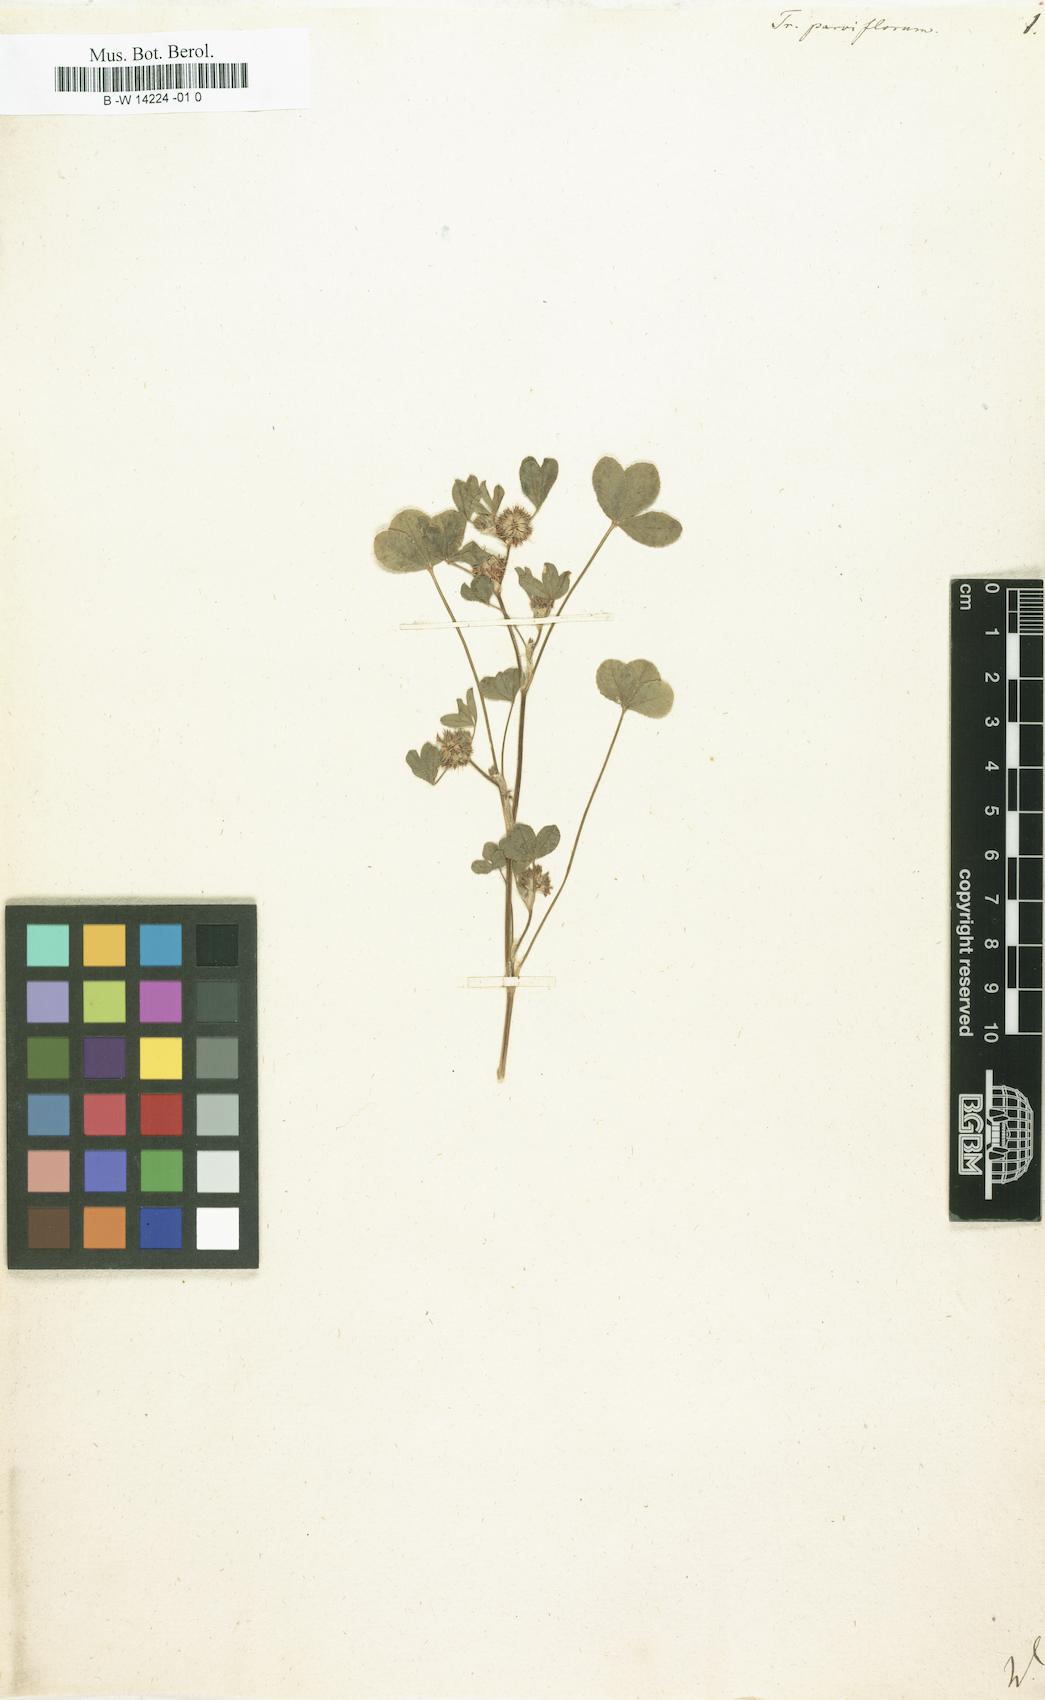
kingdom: Plantae
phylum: Tracheophyta
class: Magnoliopsida
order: Fabales
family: Fabaceae
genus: Trifolium
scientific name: Trifolium cernuum
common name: Nodding clover
